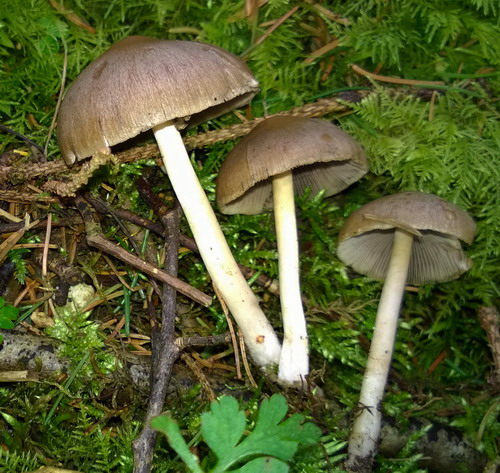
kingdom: Fungi
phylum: Basidiomycota
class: Agaricomycetes
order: Agaricales
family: Psathyrellaceae
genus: Psathyrella
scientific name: Psathyrella spadiceogrisea
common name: gråbrun mørkhat
